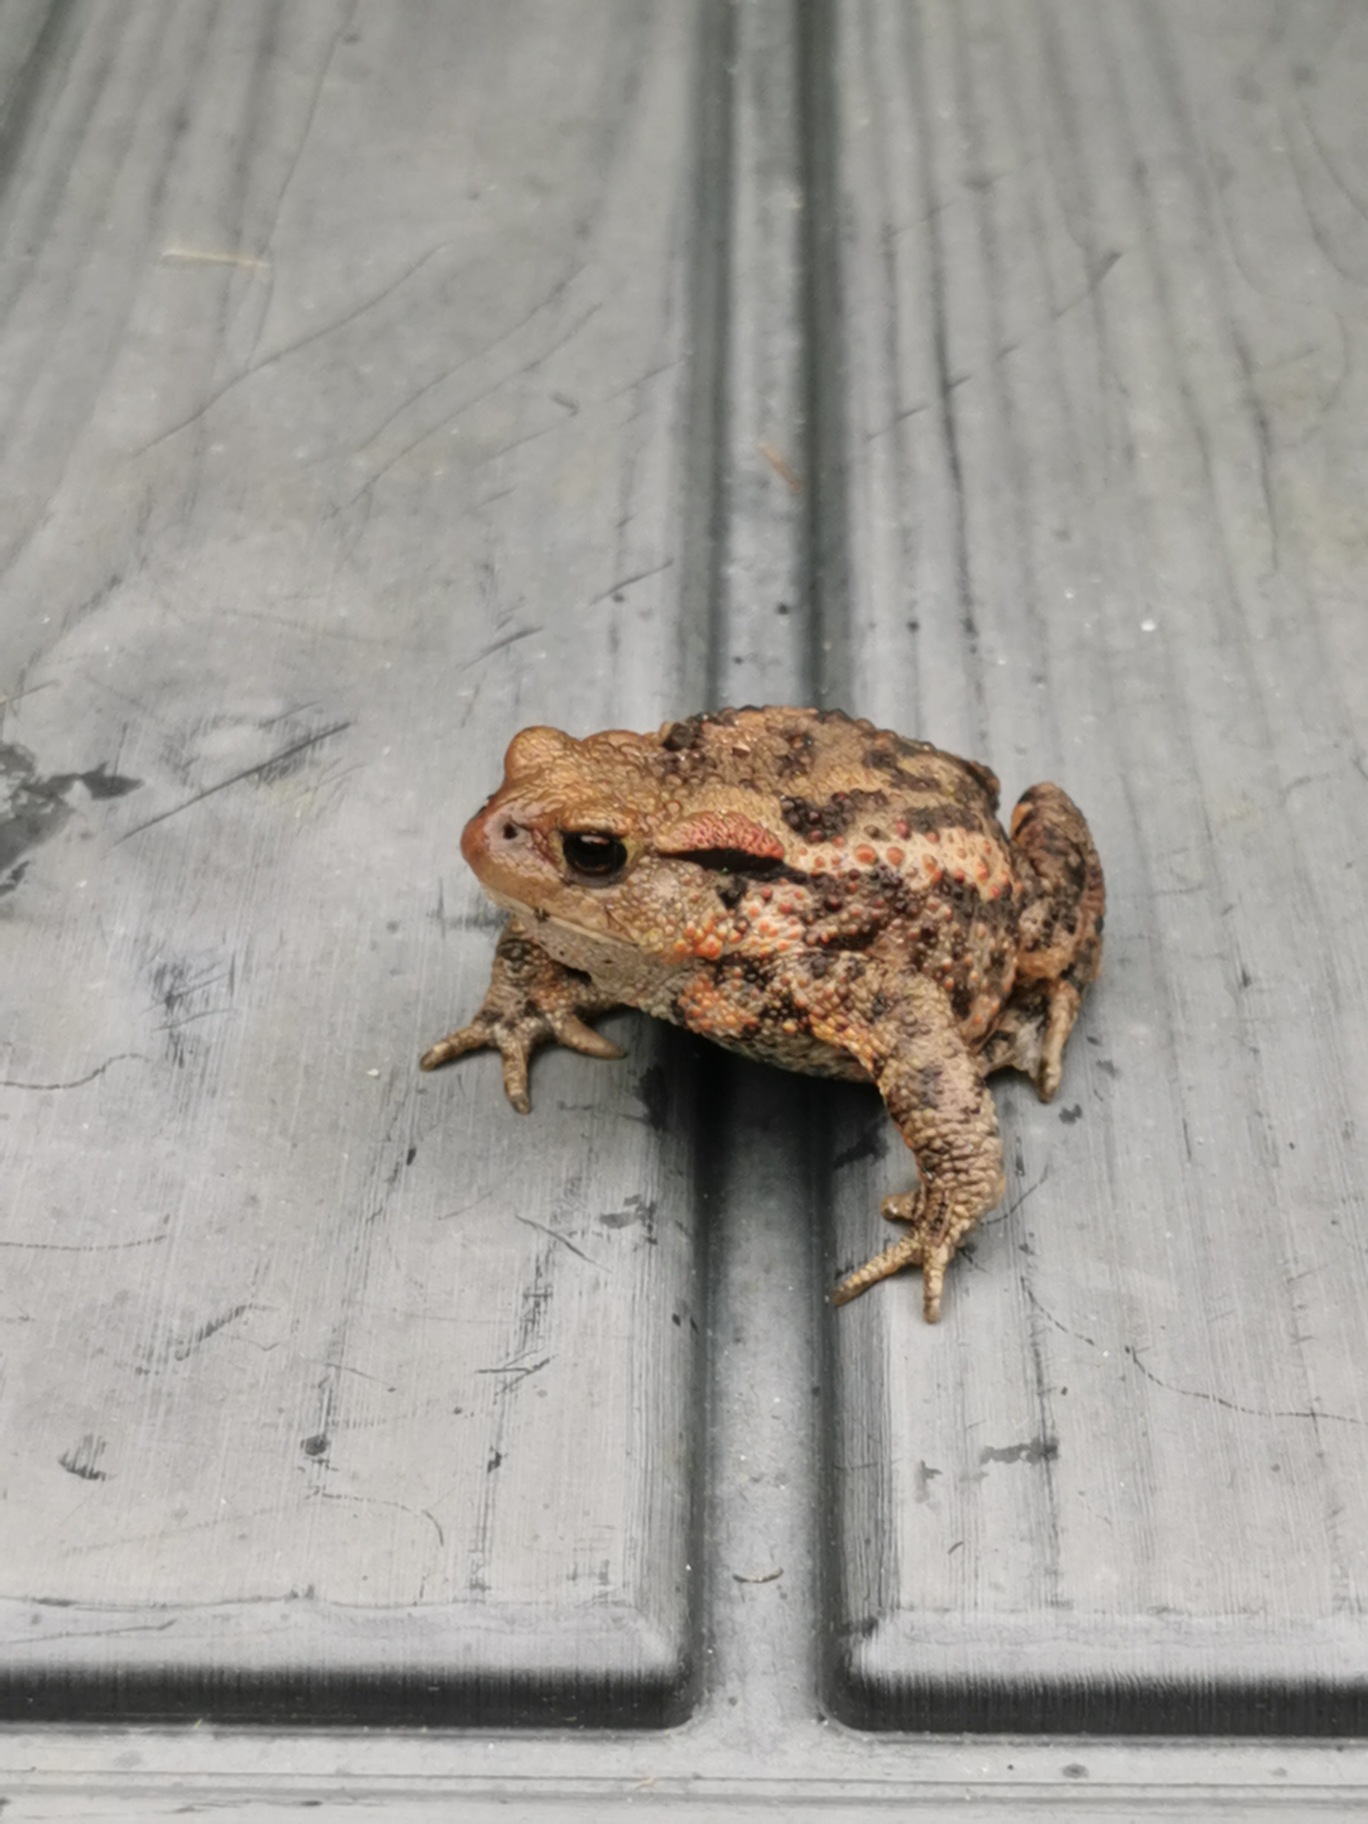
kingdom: Animalia
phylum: Chordata
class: Amphibia
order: Anura
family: Bufonidae
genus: Bufo
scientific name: Bufo bufo
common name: Skrubtudse
